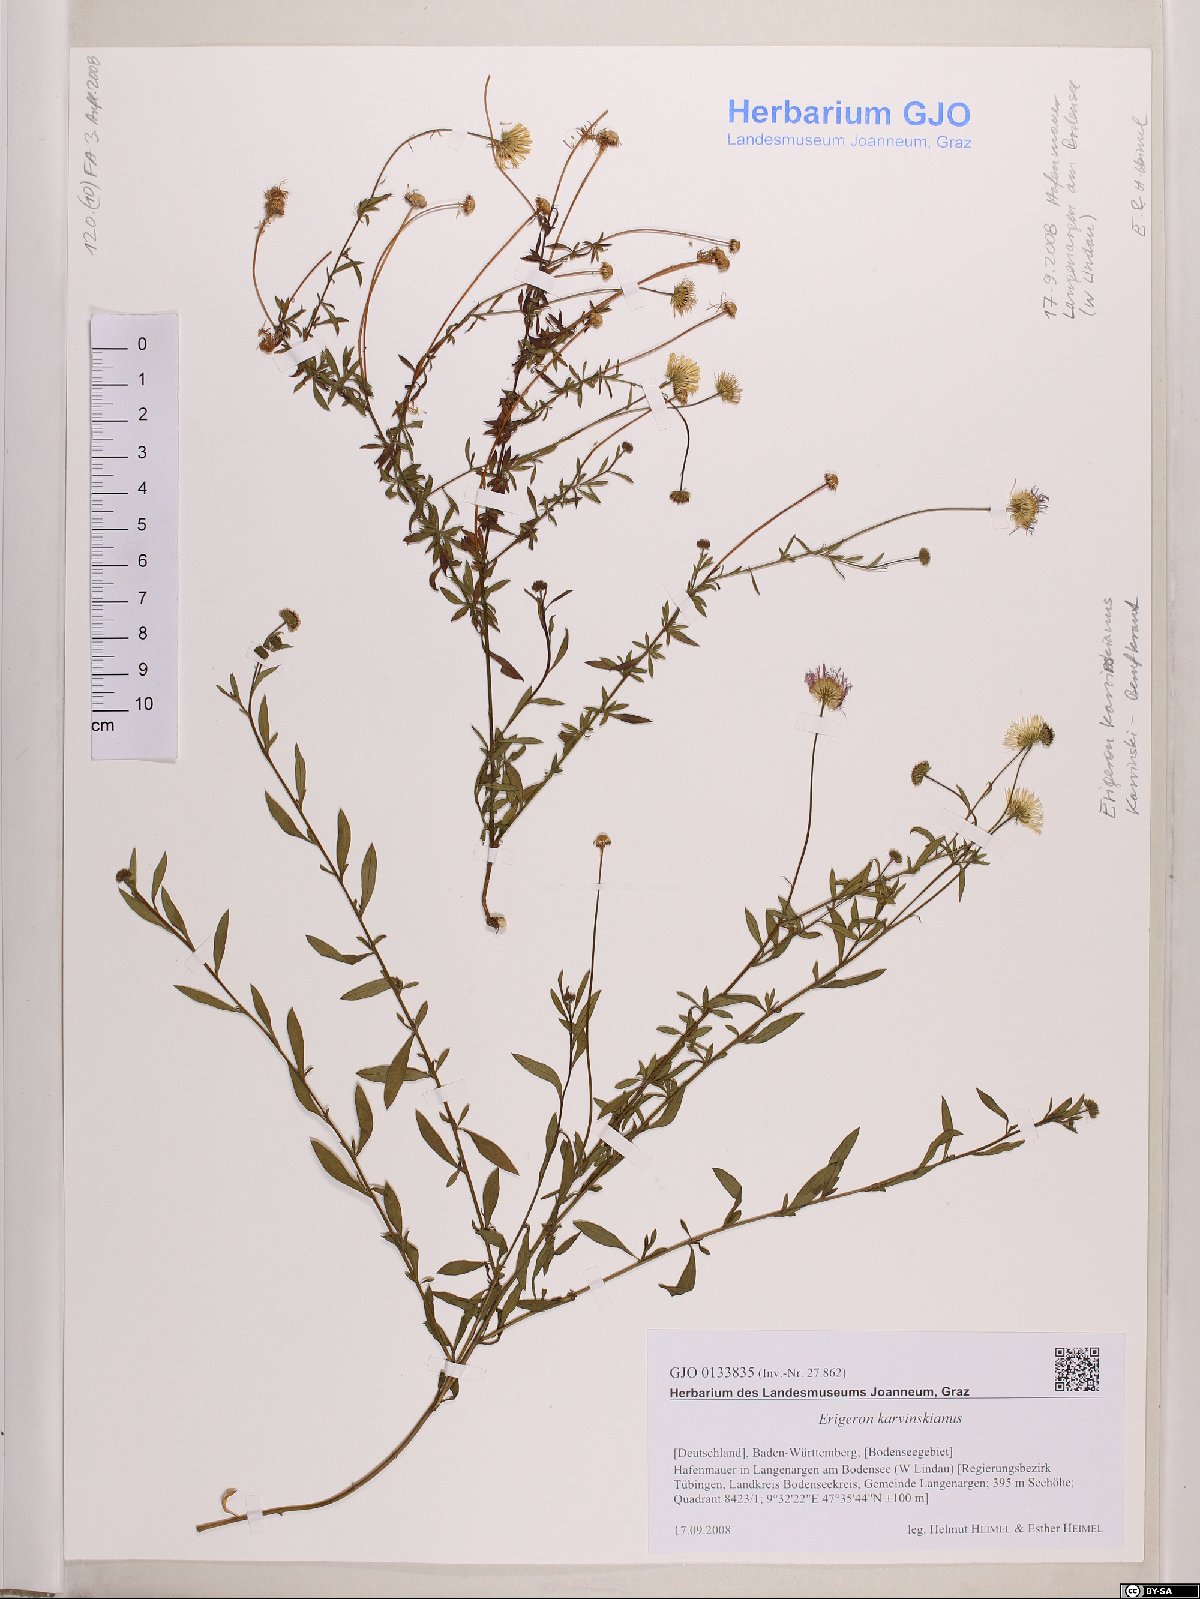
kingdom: Plantae
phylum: Tracheophyta
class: Magnoliopsida
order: Asterales
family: Asteraceae
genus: Erigeron
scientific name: Erigeron karvinskianus
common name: Mexican fleabane
